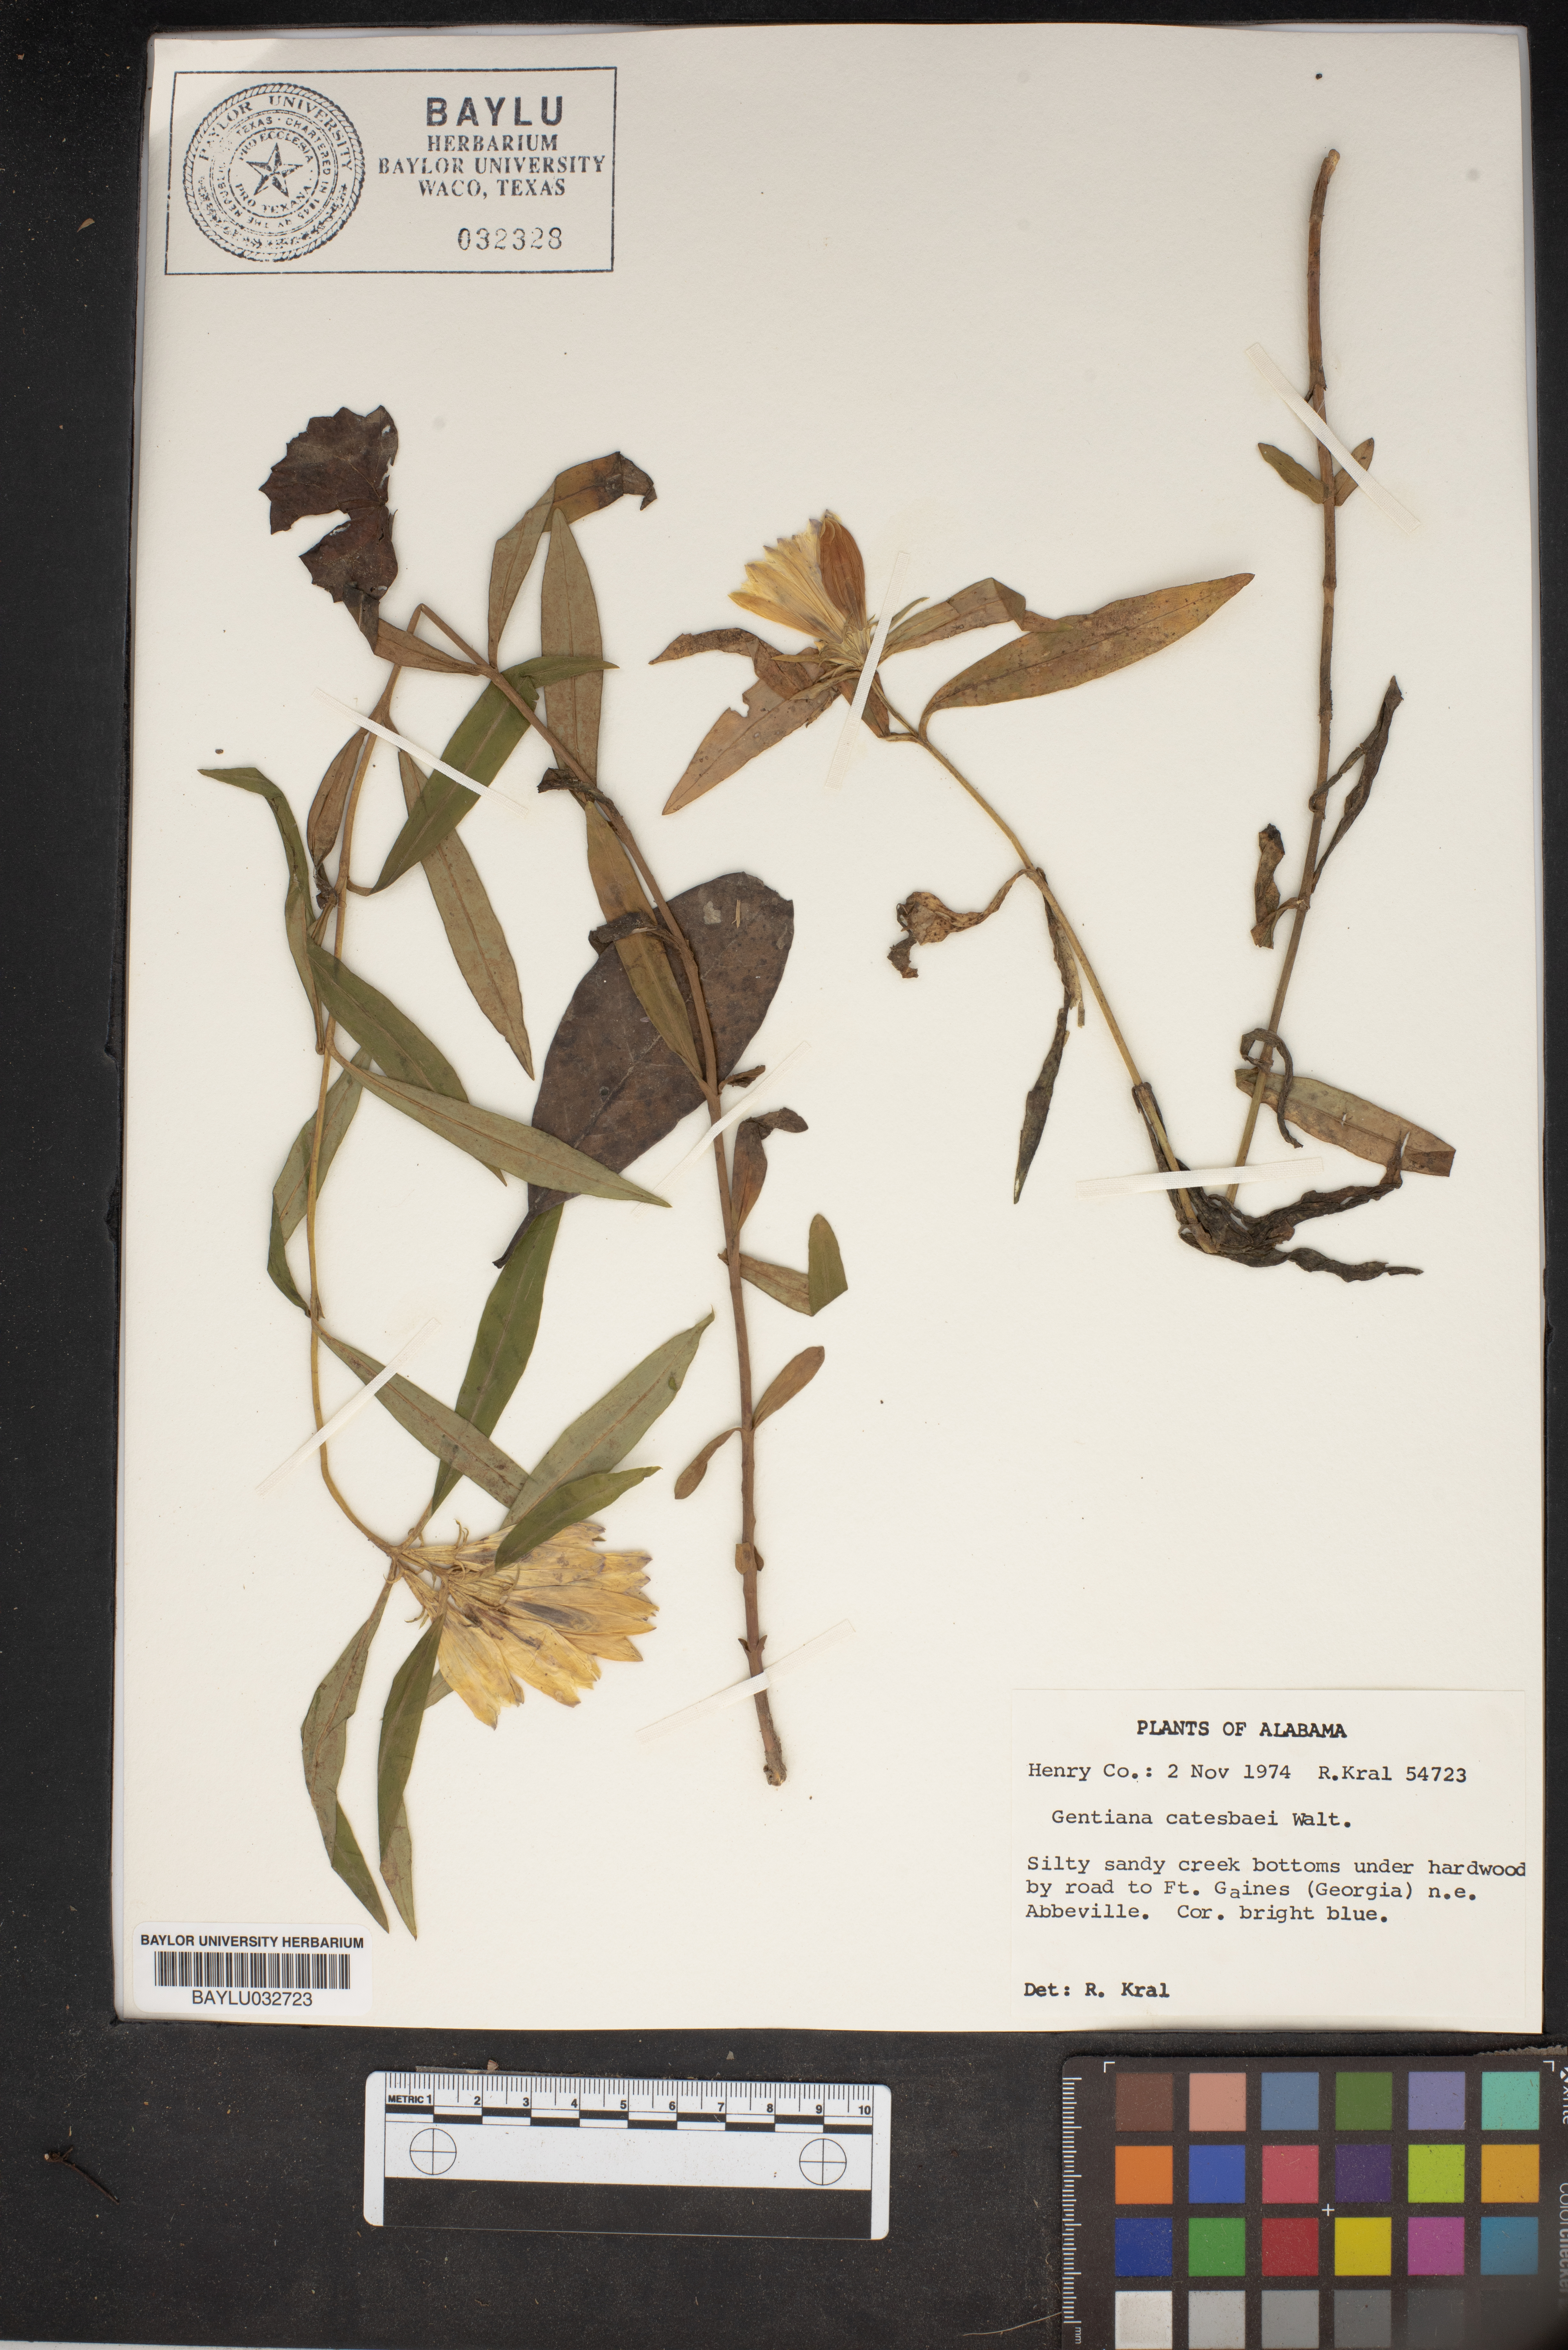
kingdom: Plantae
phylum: Tracheophyta
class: Magnoliopsida
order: Gentianales
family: Gentianaceae
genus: Gentiana
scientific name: Gentiana catesbaei
